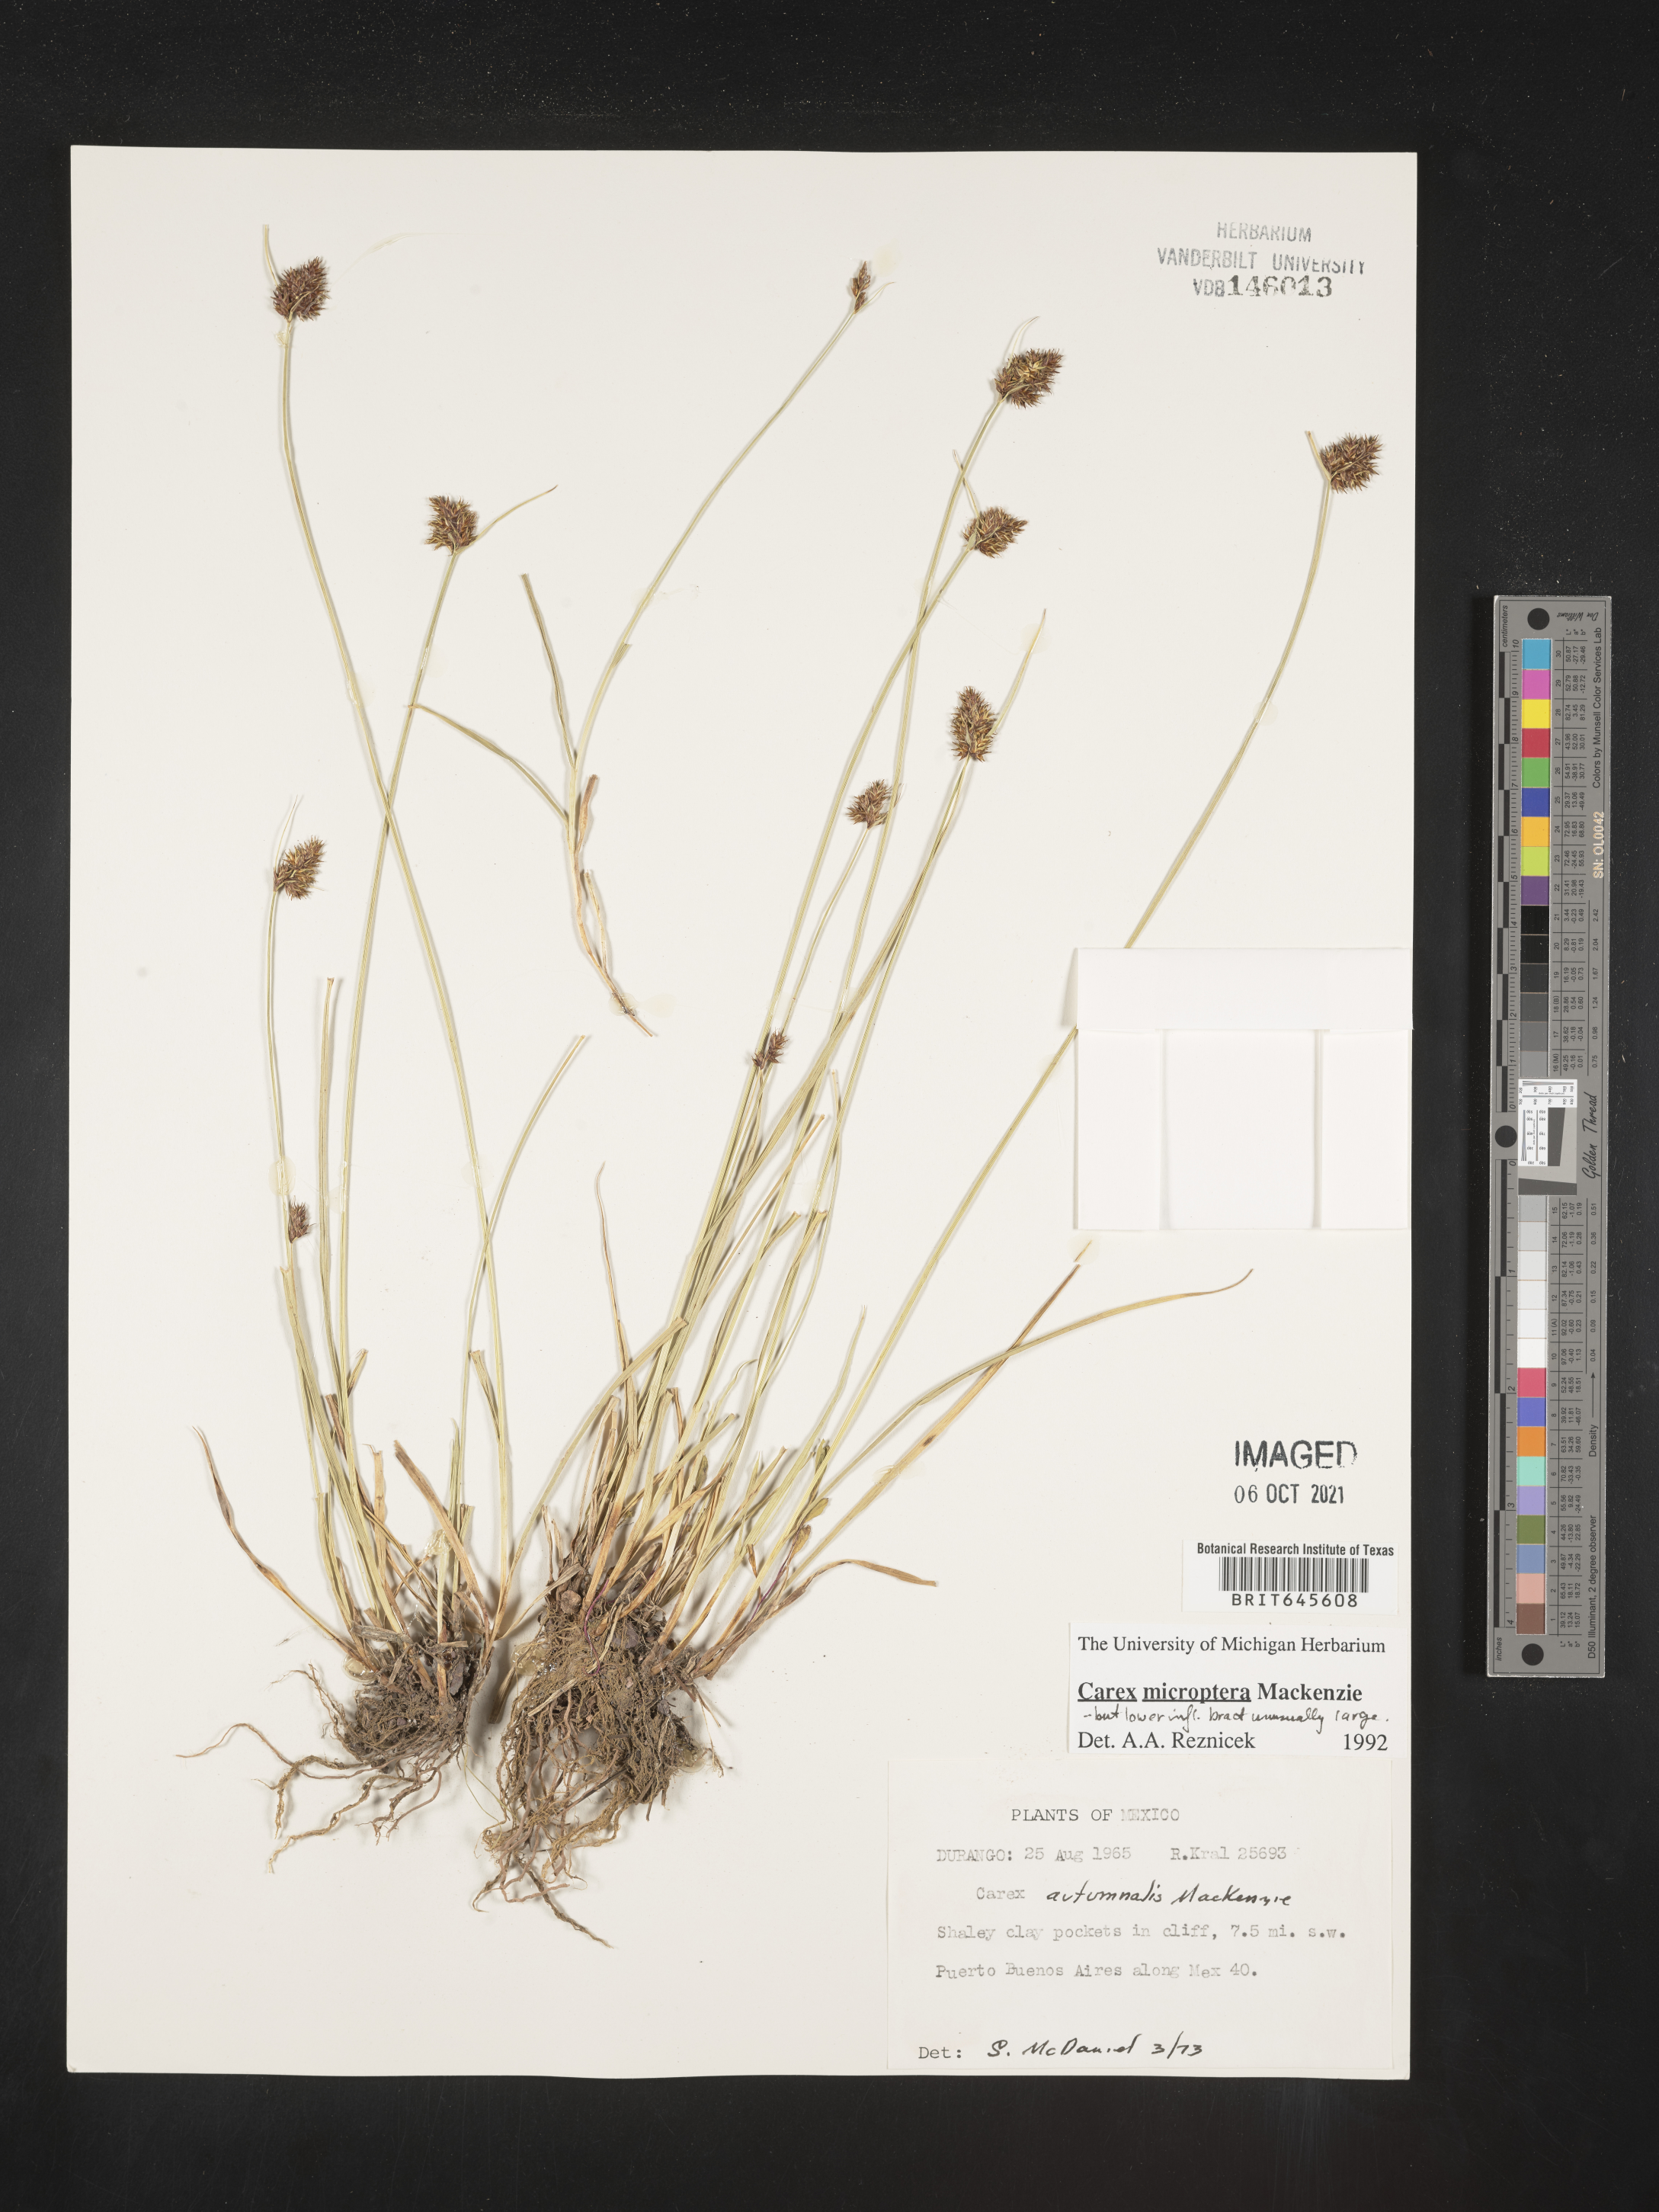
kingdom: Plantae
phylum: Tracheophyta
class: Liliopsida
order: Poales
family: Cyperaceae
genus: Carex
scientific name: Carex
